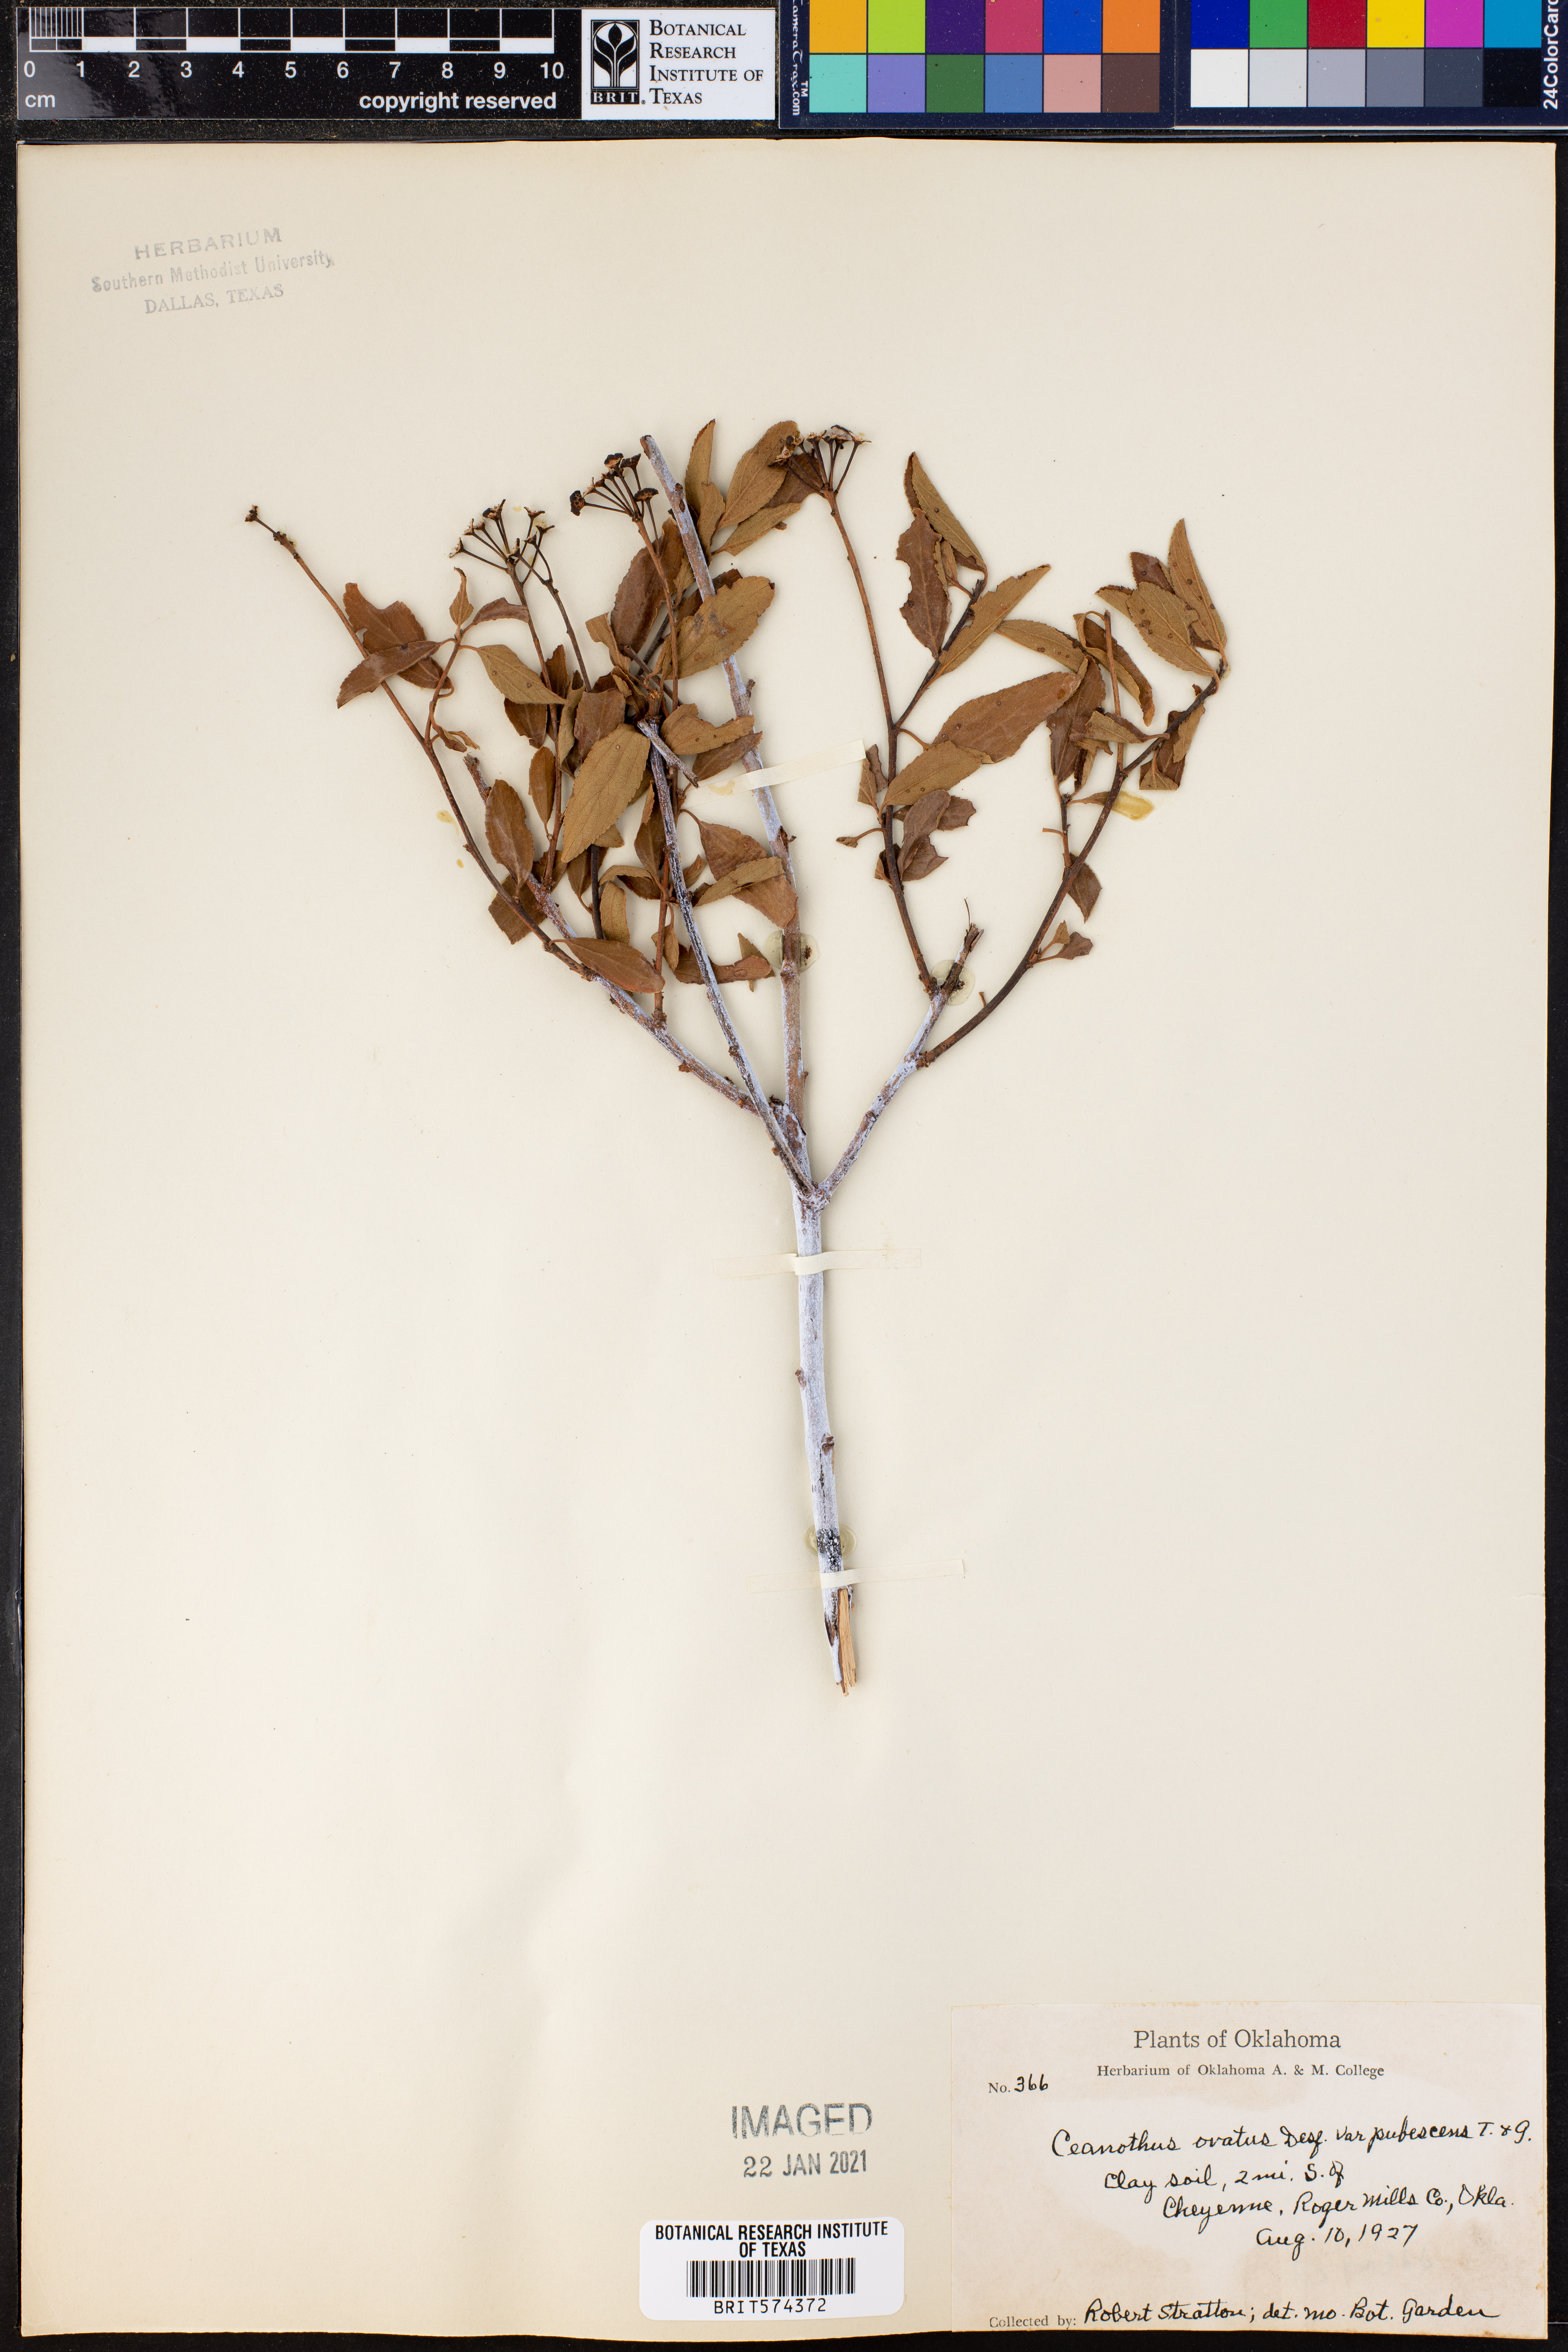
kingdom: Plantae
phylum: Tracheophyta
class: Magnoliopsida
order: Rosales
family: Rhamnaceae
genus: Ceanothus
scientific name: Ceanothus herbaceus
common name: Inland ceanothus
